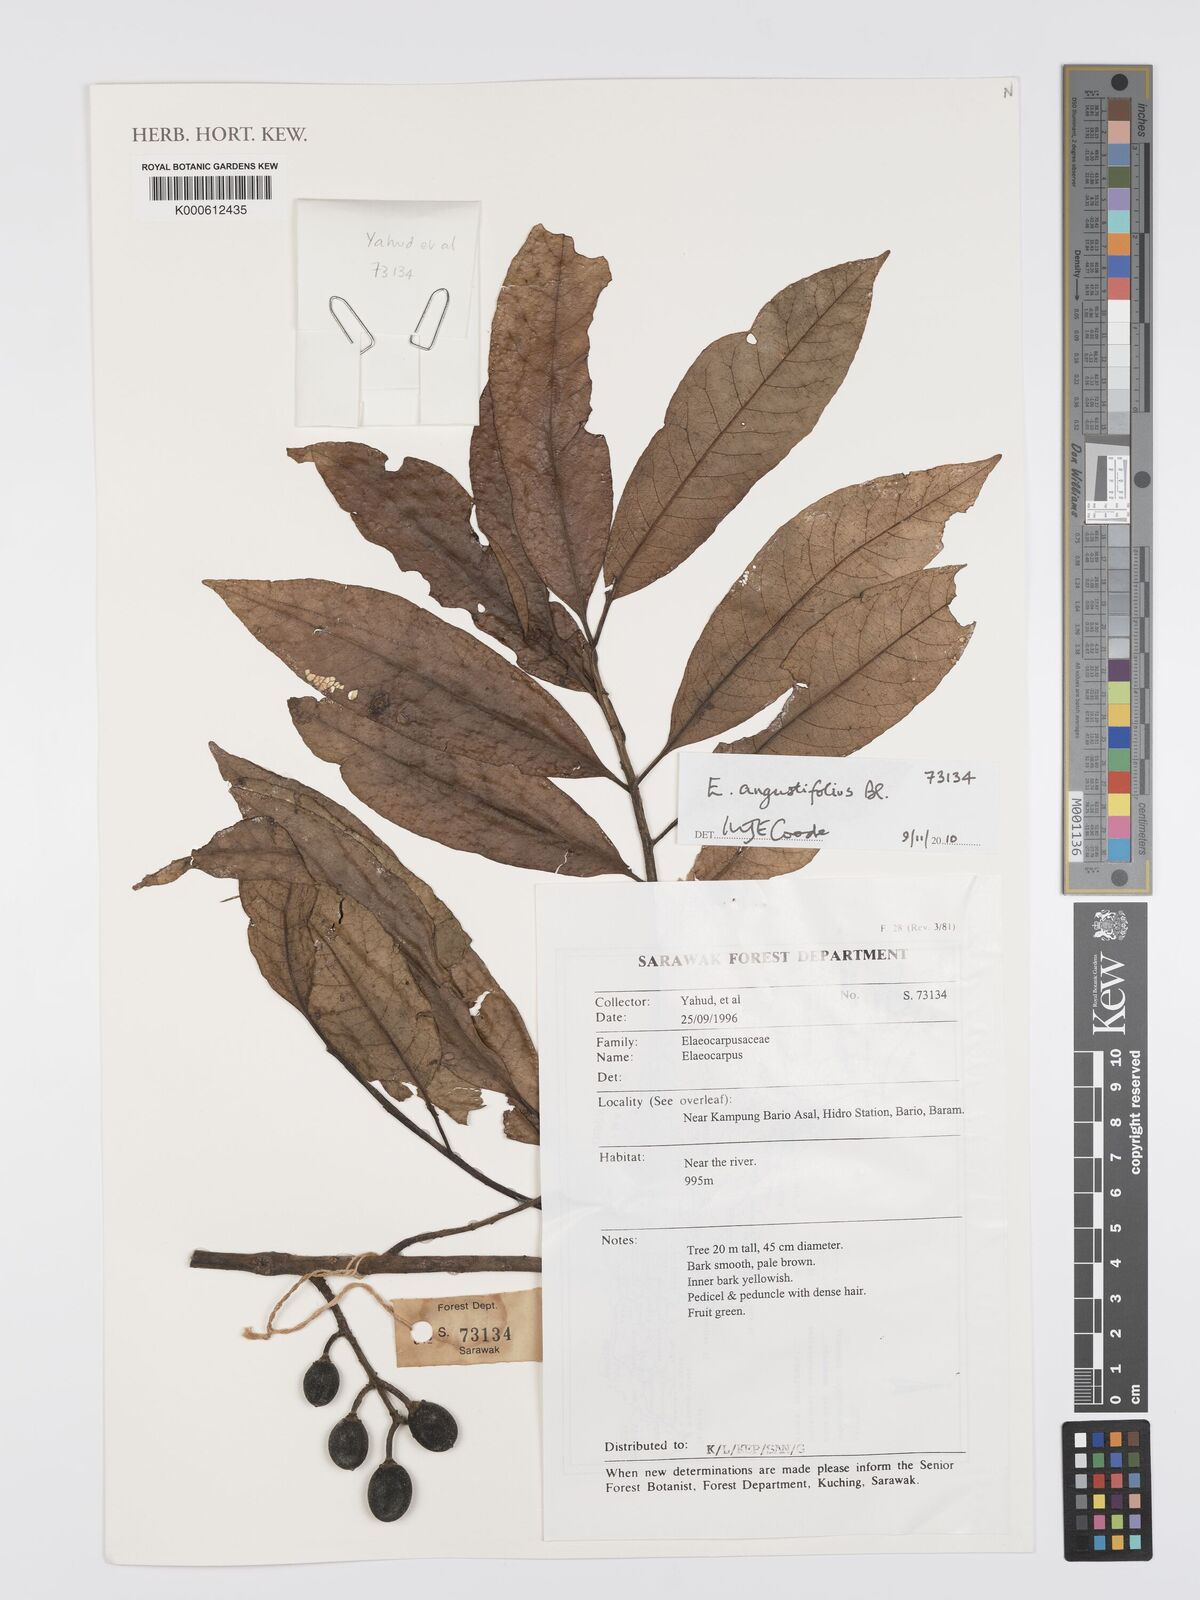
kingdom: Plantae
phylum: Tracheophyta
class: Magnoliopsida
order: Oxalidales
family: Elaeocarpaceae
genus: Elaeocarpus
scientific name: Elaeocarpus angustifolius
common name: Blue marble tree
